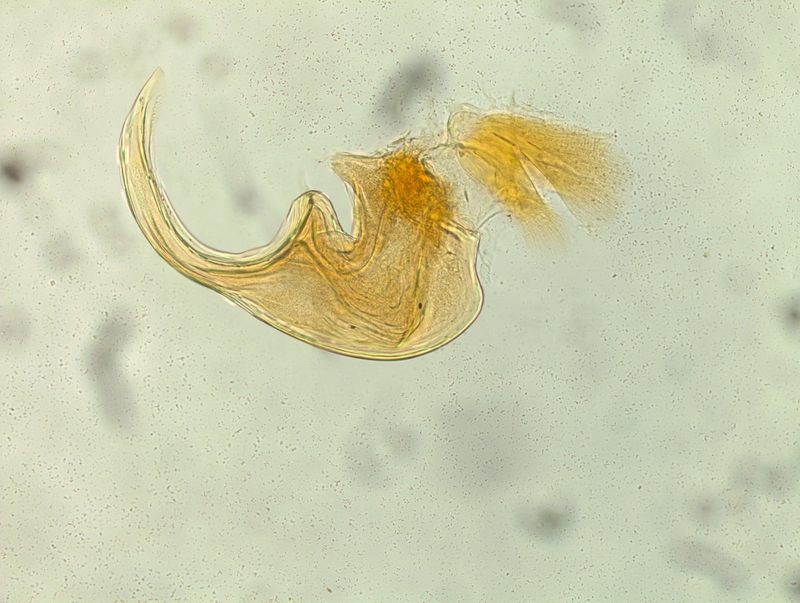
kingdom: Animalia
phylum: Arthropoda
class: Diplopoda
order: Chordeumatida
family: Craspedosomatidae
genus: Listrocheiritium
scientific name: Listrocheiritium styricum
